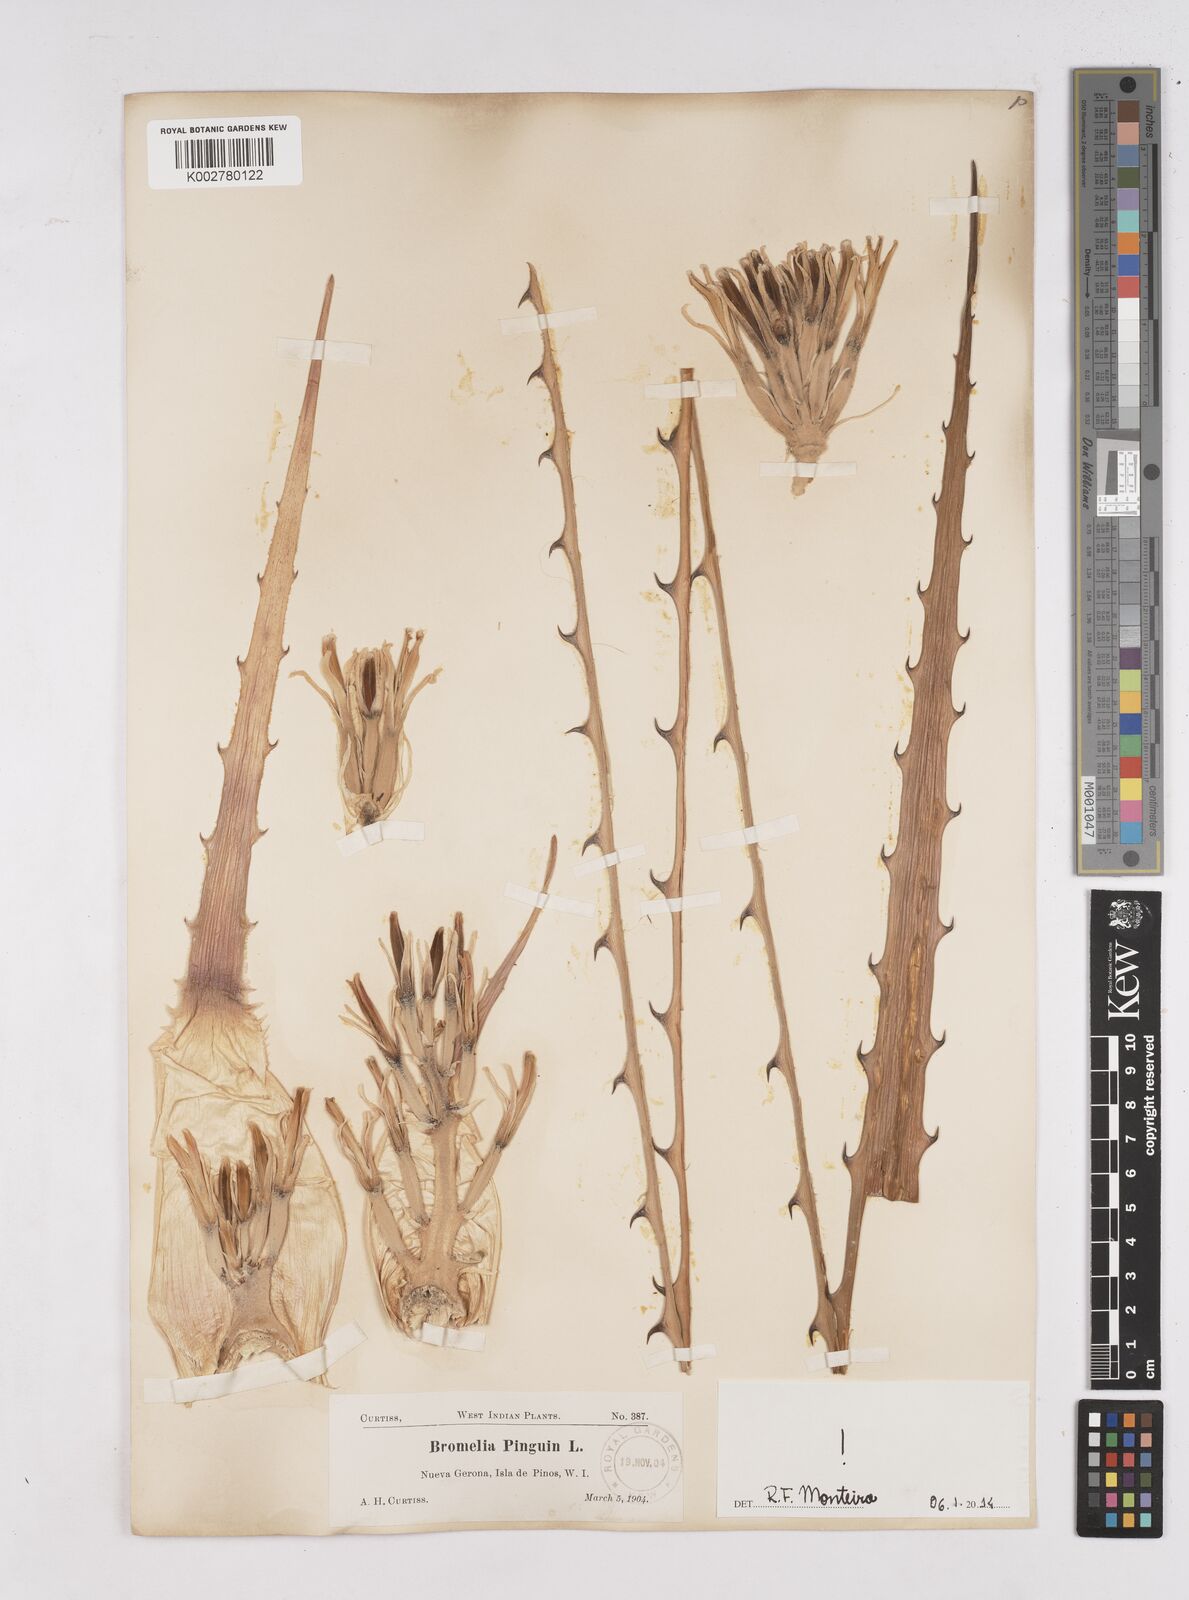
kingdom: Plantae
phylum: Tracheophyta
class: Liliopsida
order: Poales
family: Bromeliaceae
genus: Bromelia
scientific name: Bromelia pinguin
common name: Pinguin
